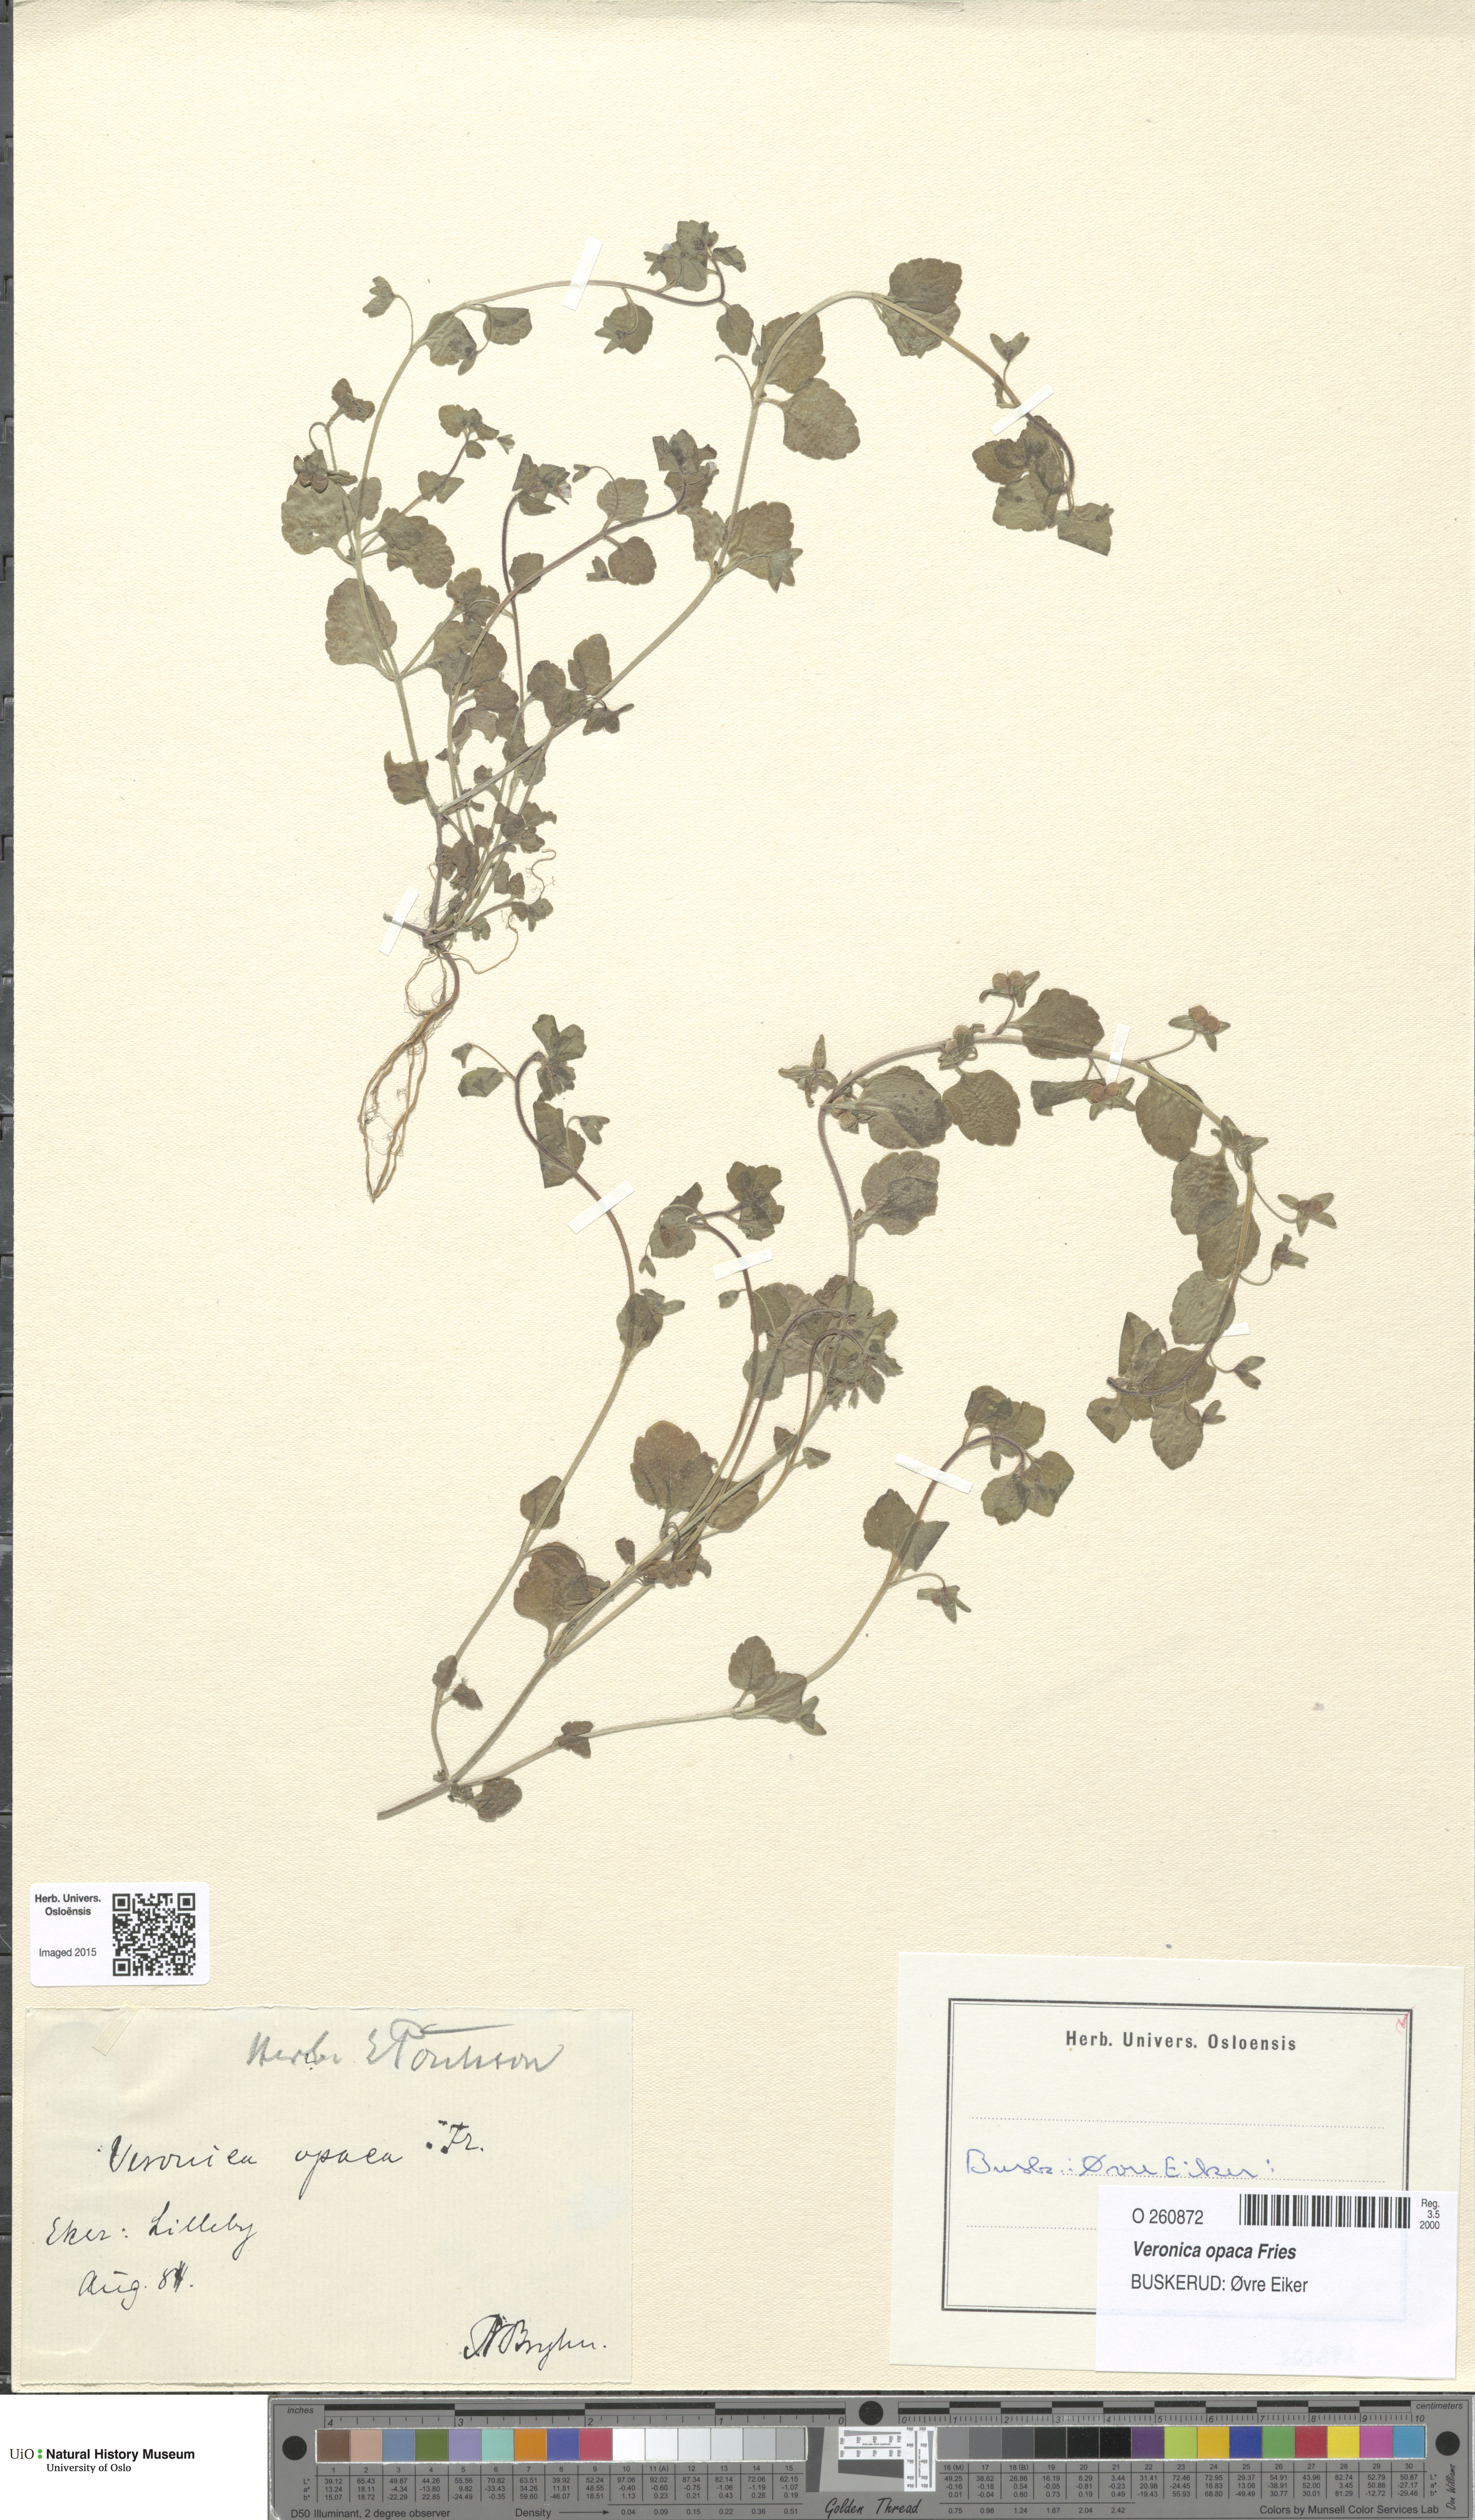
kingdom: Plantae
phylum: Tracheophyta
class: Magnoliopsida
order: Lamiales
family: Plantaginaceae
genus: Veronica
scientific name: Veronica opaca
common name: Dark speedwell
